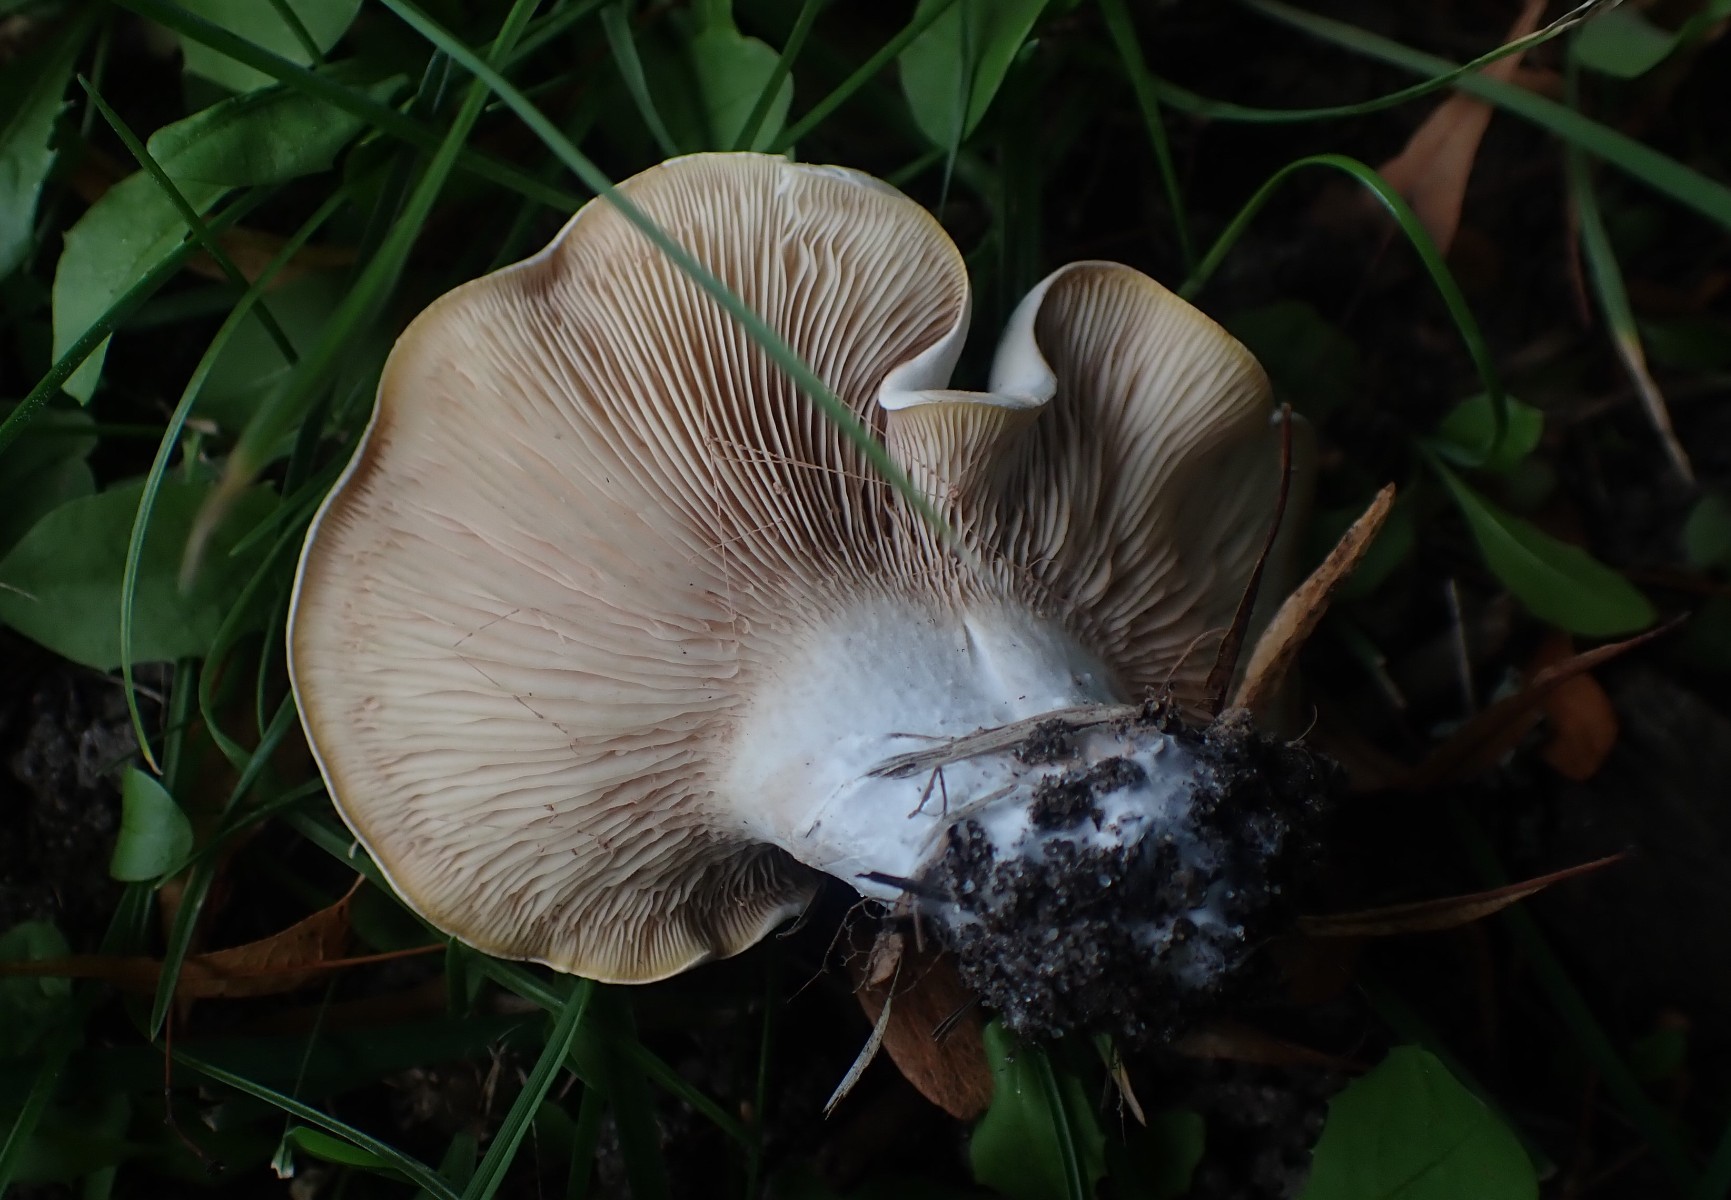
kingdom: Fungi
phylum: Basidiomycota
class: Agaricomycetes
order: Agaricales
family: Entolomataceae
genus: Clitopilus
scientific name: Clitopilus prunulus
